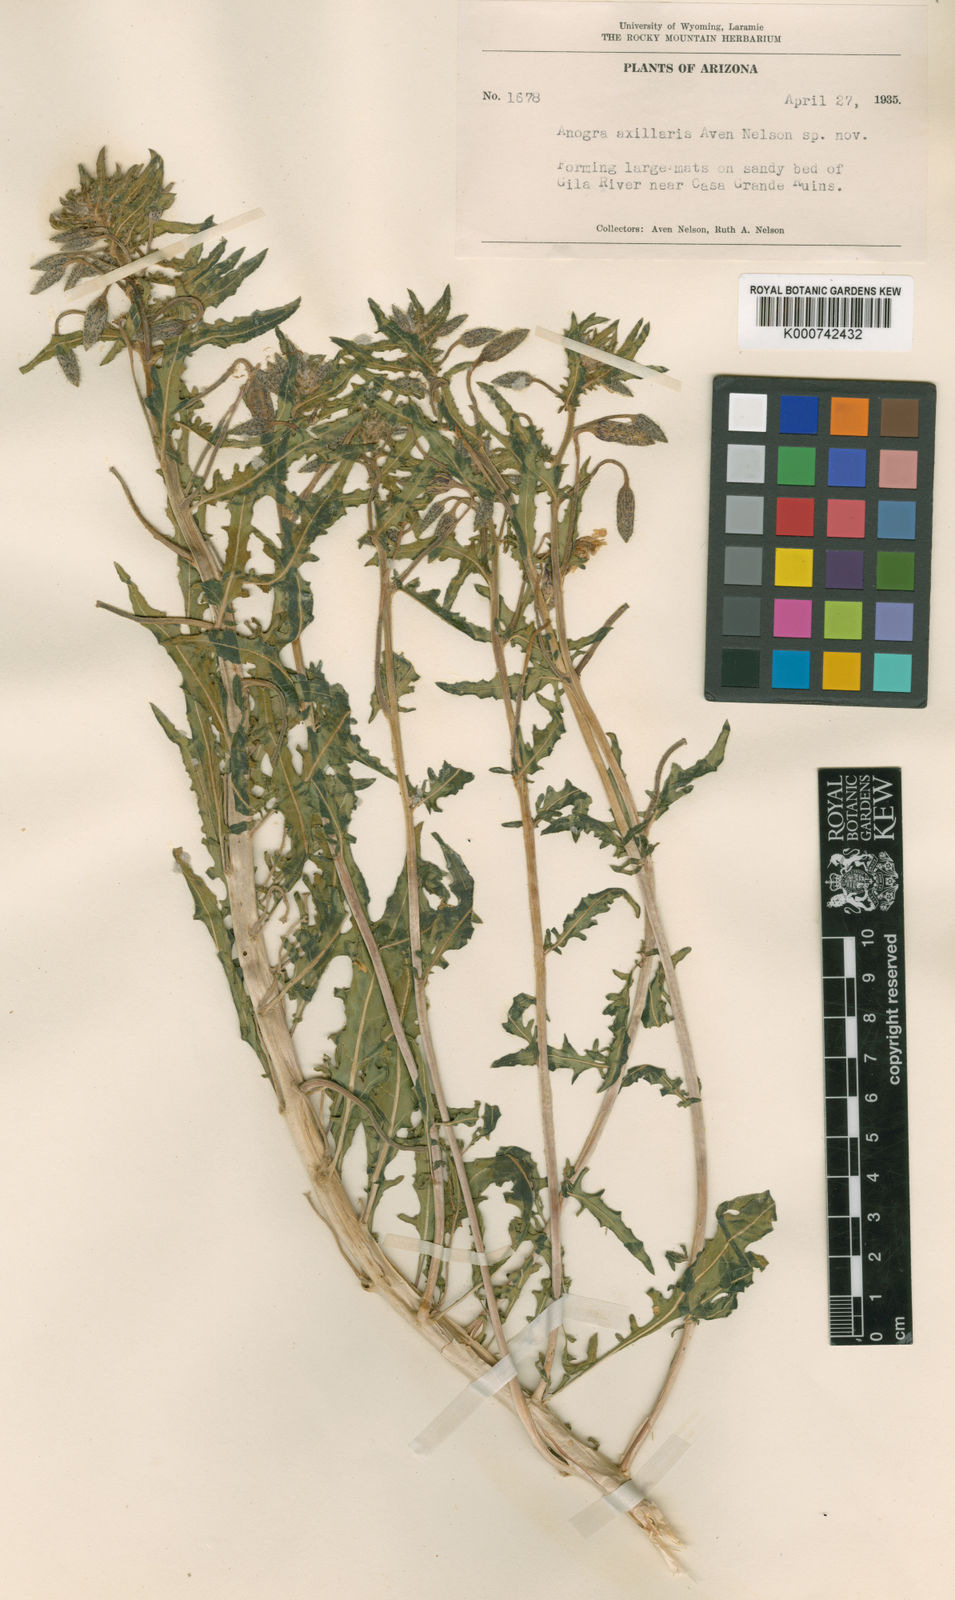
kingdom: Plantae
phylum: Tracheophyta
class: Magnoliopsida
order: Myrtales
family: Onagraceae
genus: Oenothera
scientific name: Oenothera
